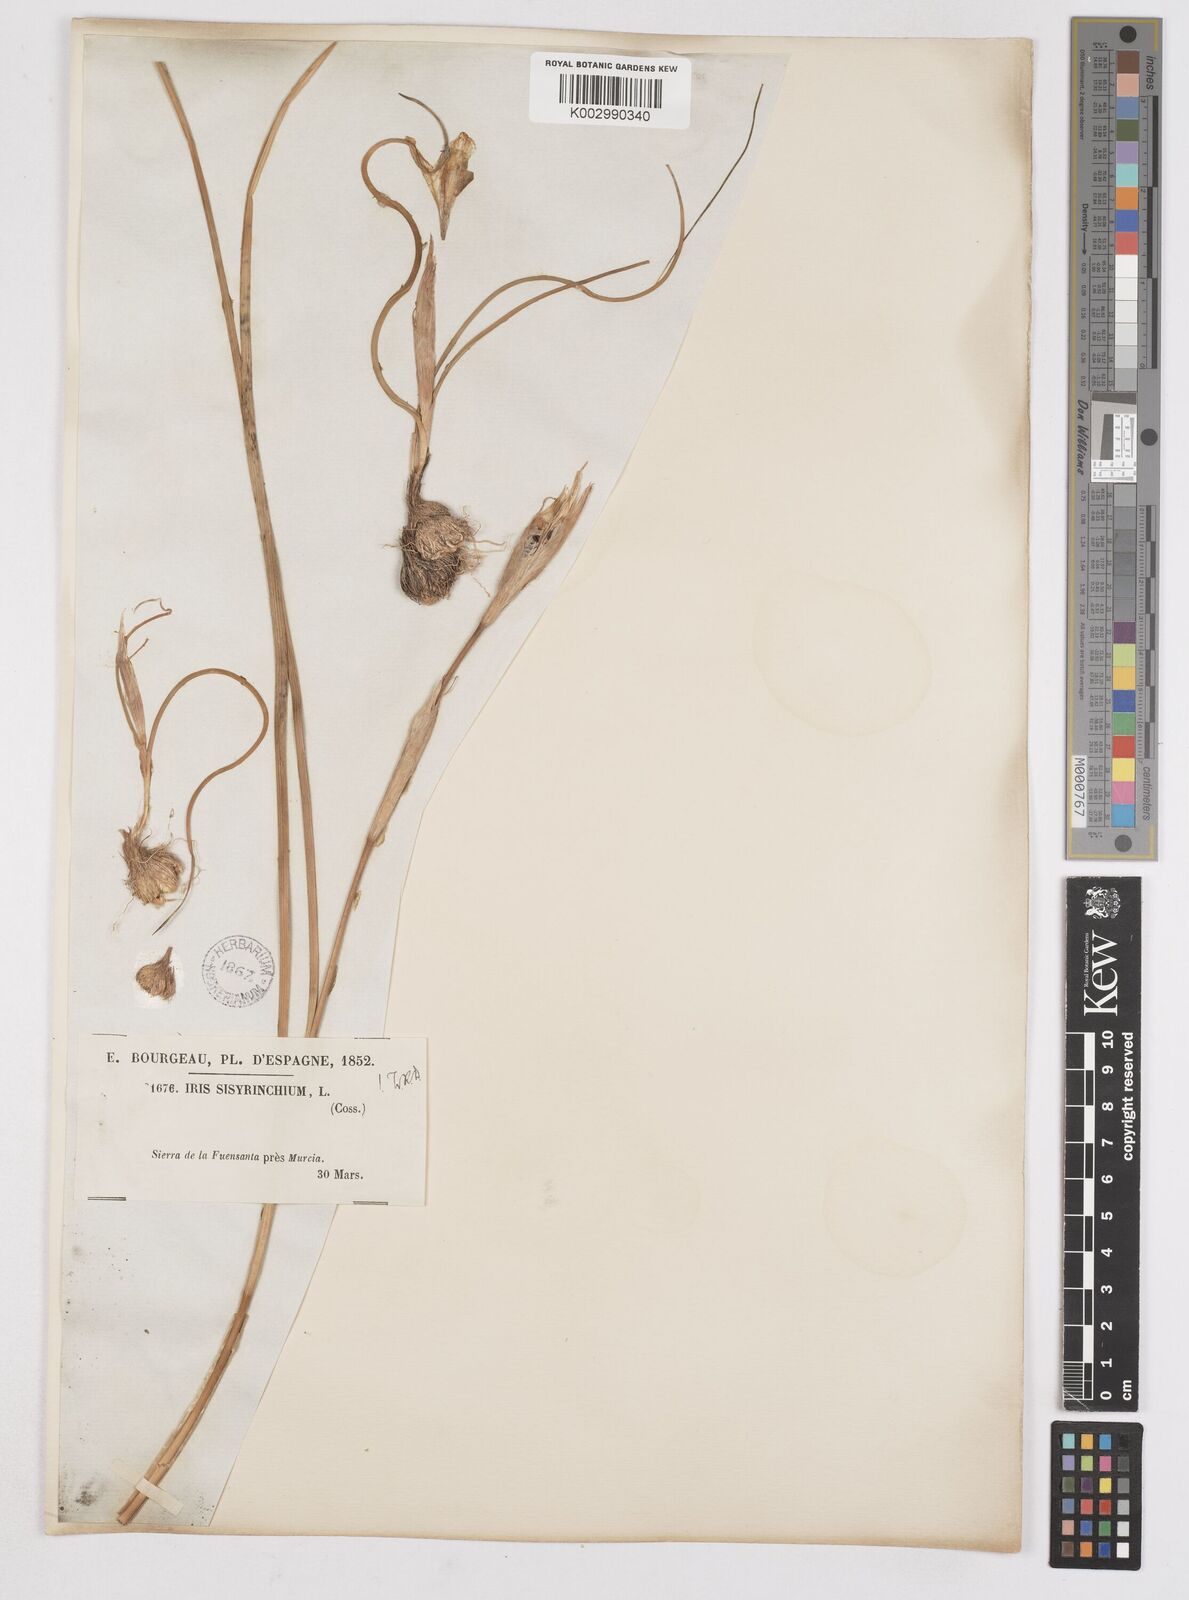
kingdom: Plantae
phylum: Tracheophyta
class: Liliopsida
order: Asparagales
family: Iridaceae
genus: Moraea
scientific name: Moraea sisyrinchium
